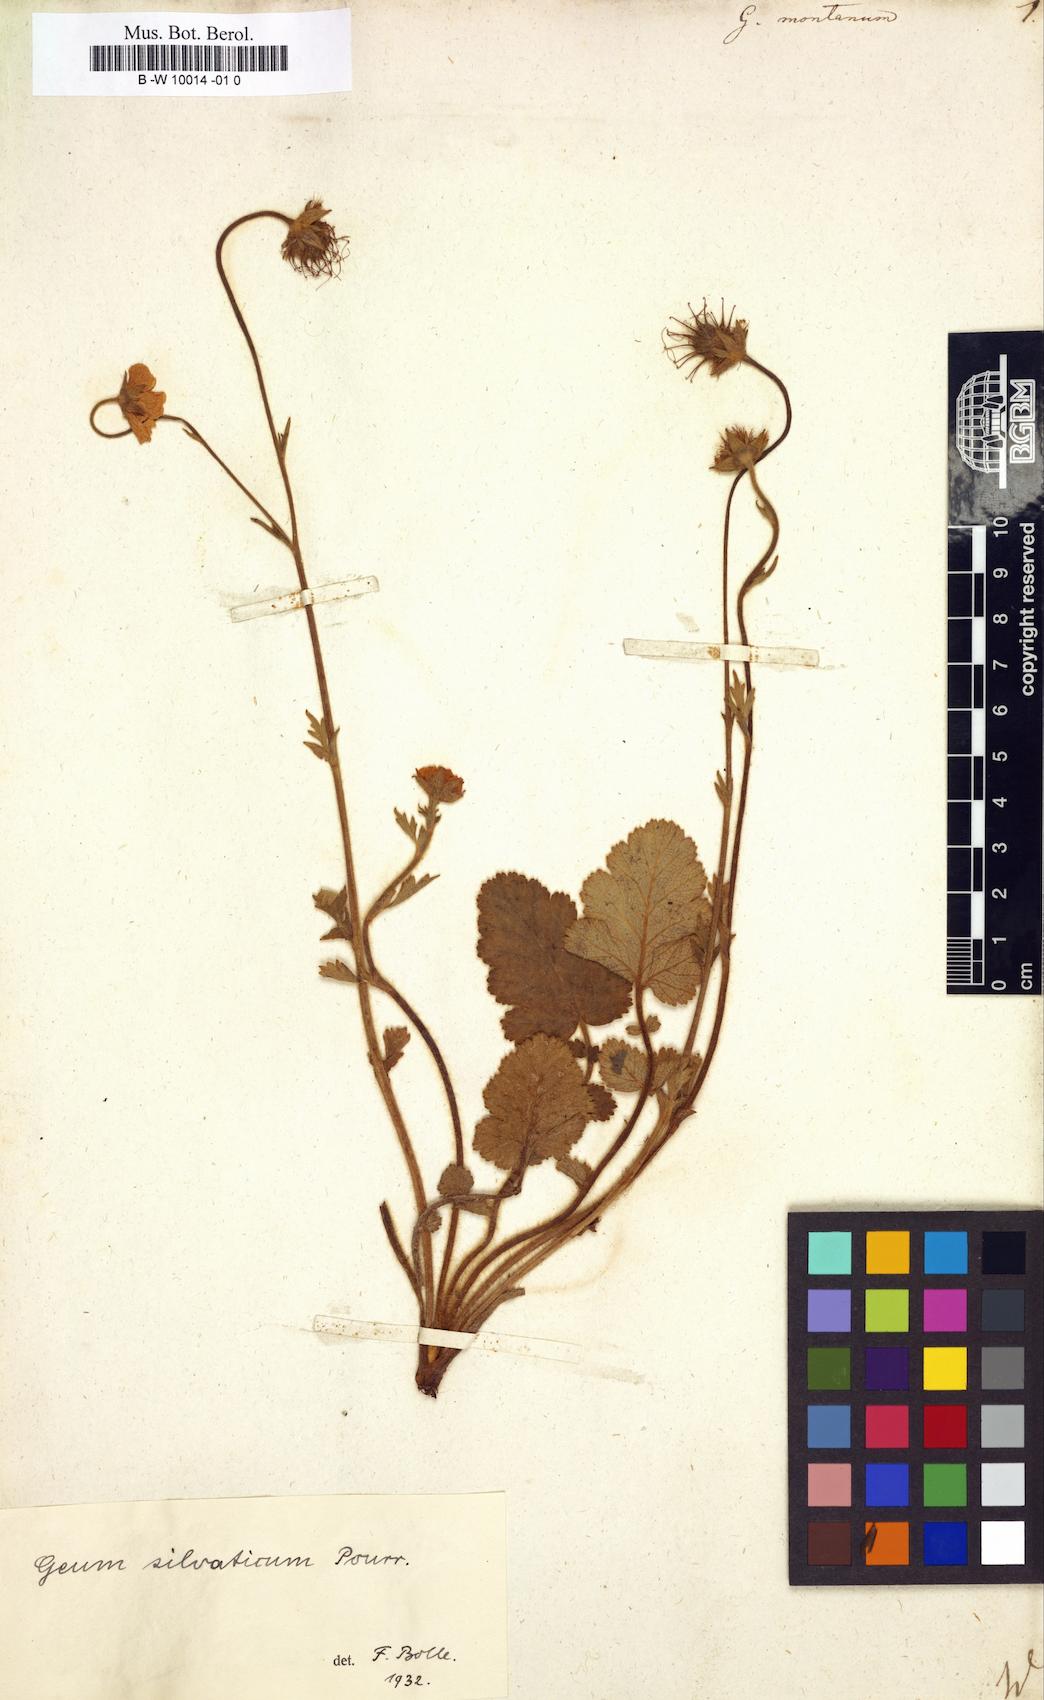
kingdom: Plantae
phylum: Tracheophyta
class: Magnoliopsida
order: Rosales
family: Rosaceae
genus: Geum
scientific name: Geum montanum
